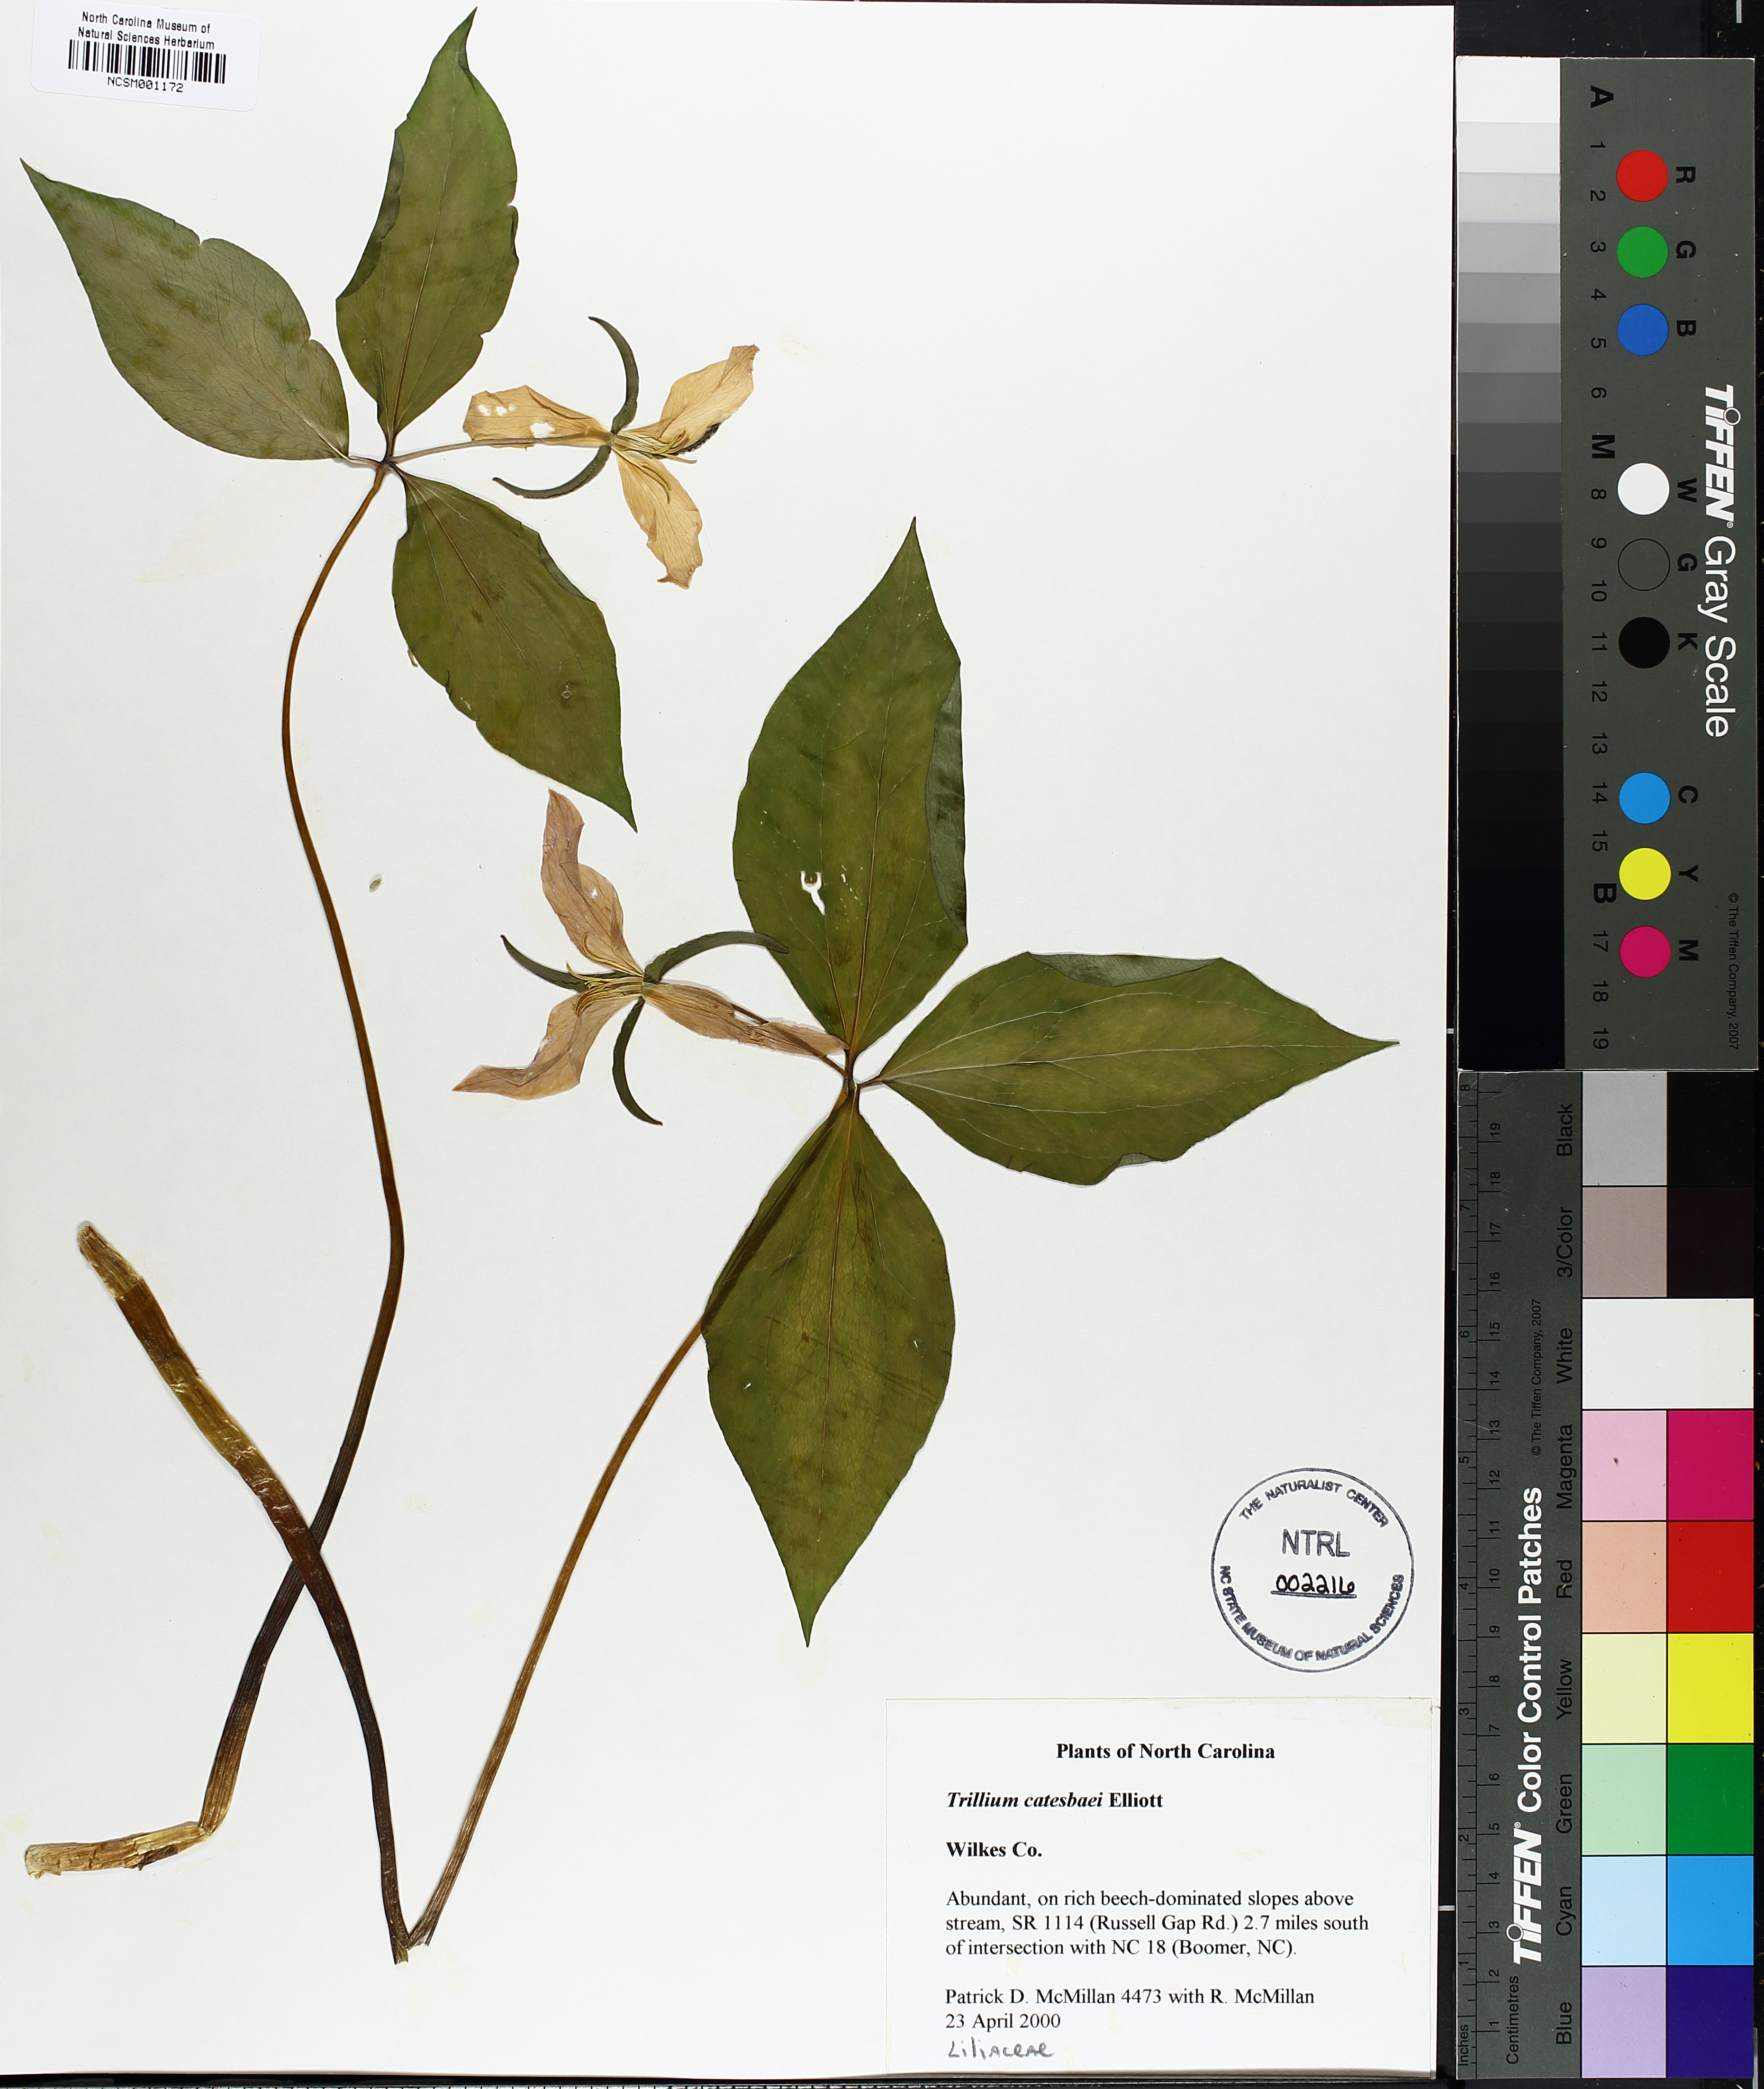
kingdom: Plantae
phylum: Tracheophyta
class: Liliopsida
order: Liliales
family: Melanthiaceae
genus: Trillium
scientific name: Trillium catesbaei
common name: Bashful trillium
